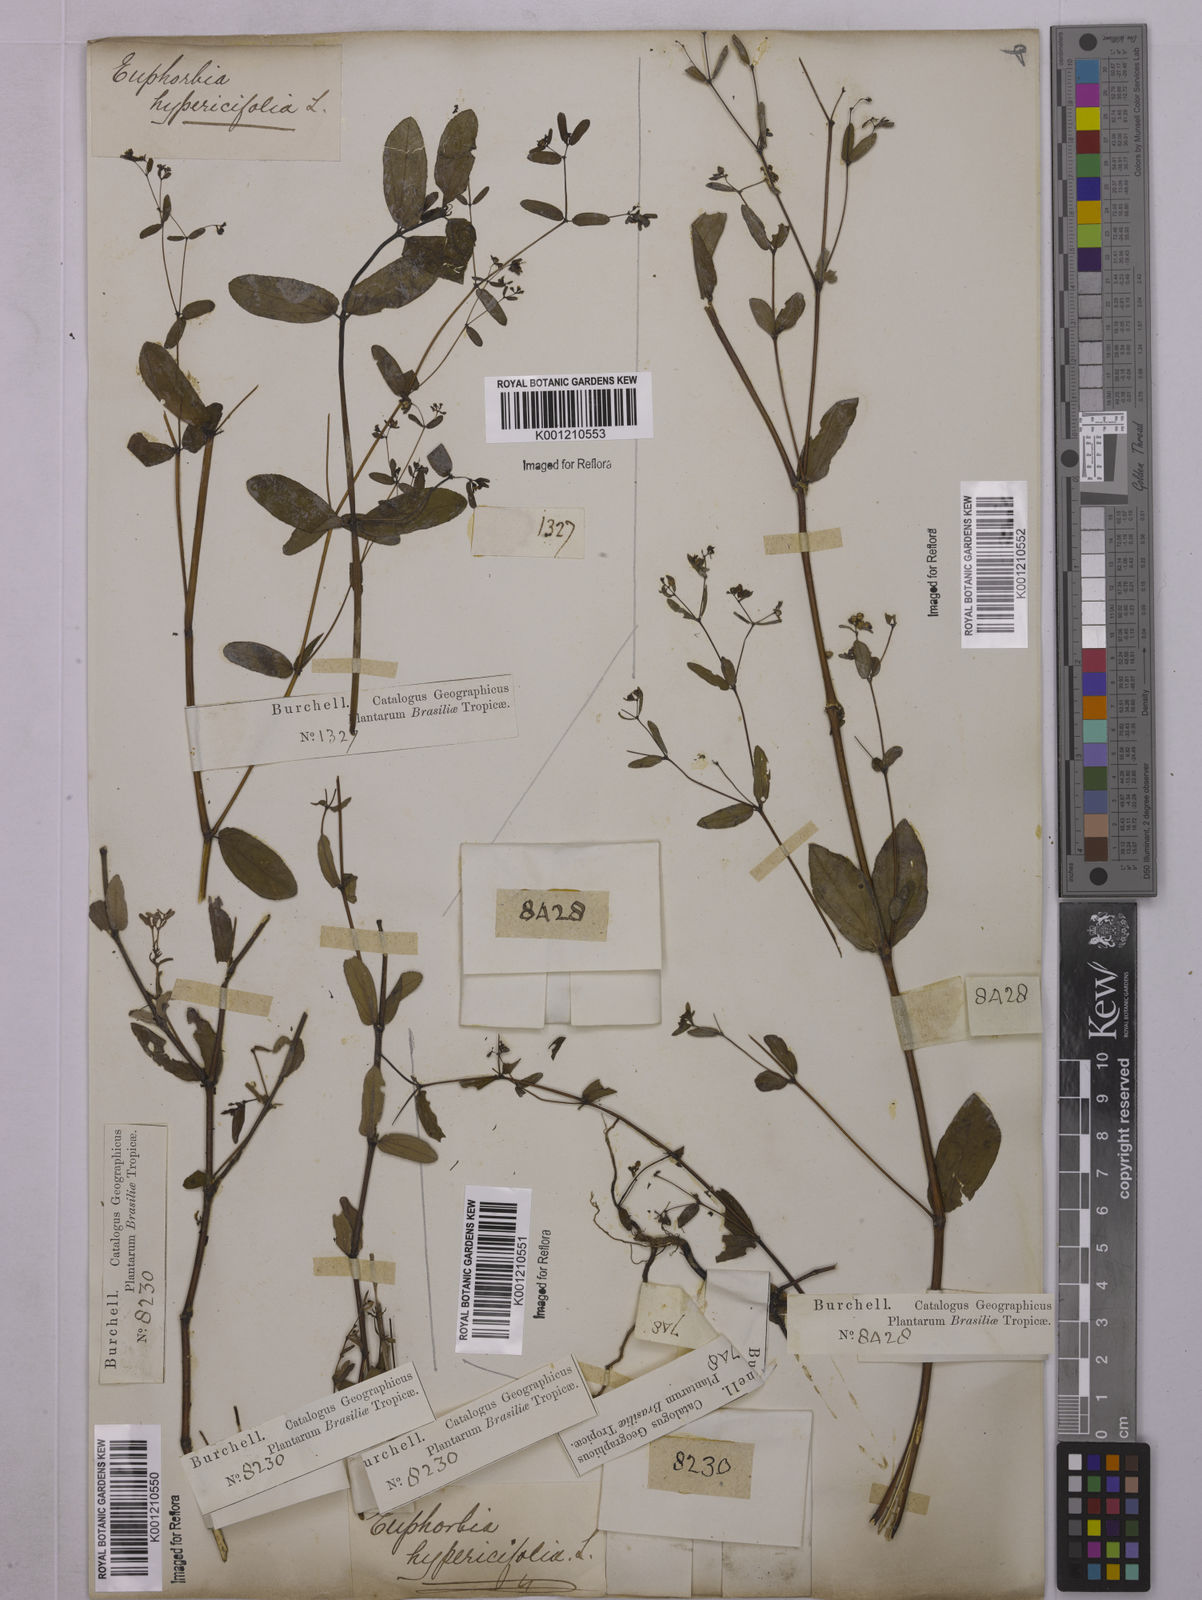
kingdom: Plantae
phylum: Tracheophyta
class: Magnoliopsida
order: Malpighiales
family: Euphorbiaceae
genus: Euphorbia
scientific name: Euphorbia hypericifolia
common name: Graceful sandmat
